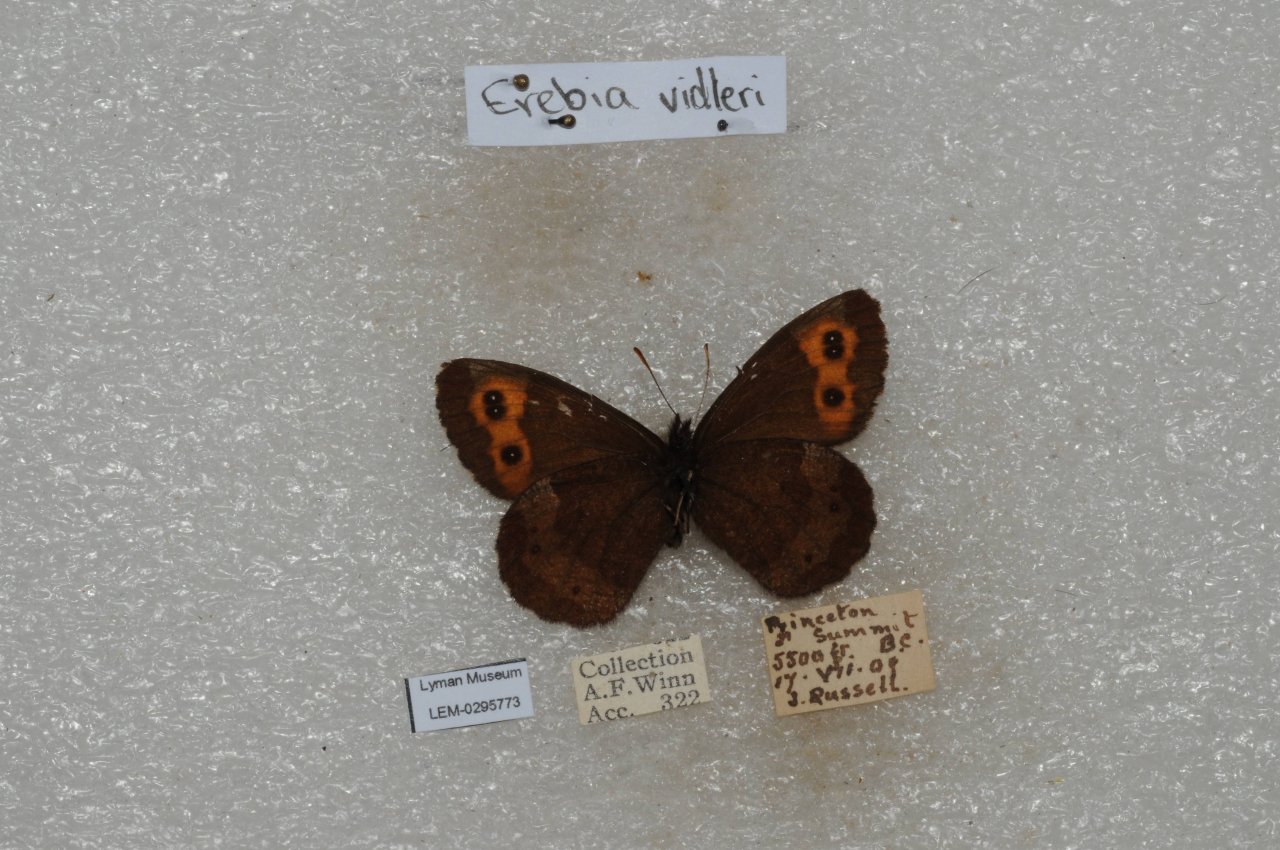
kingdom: Animalia
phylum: Arthropoda
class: Insecta
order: Lepidoptera
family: Nymphalidae
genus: Erebia
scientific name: Erebia vidleri
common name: Vidler's Alpine
